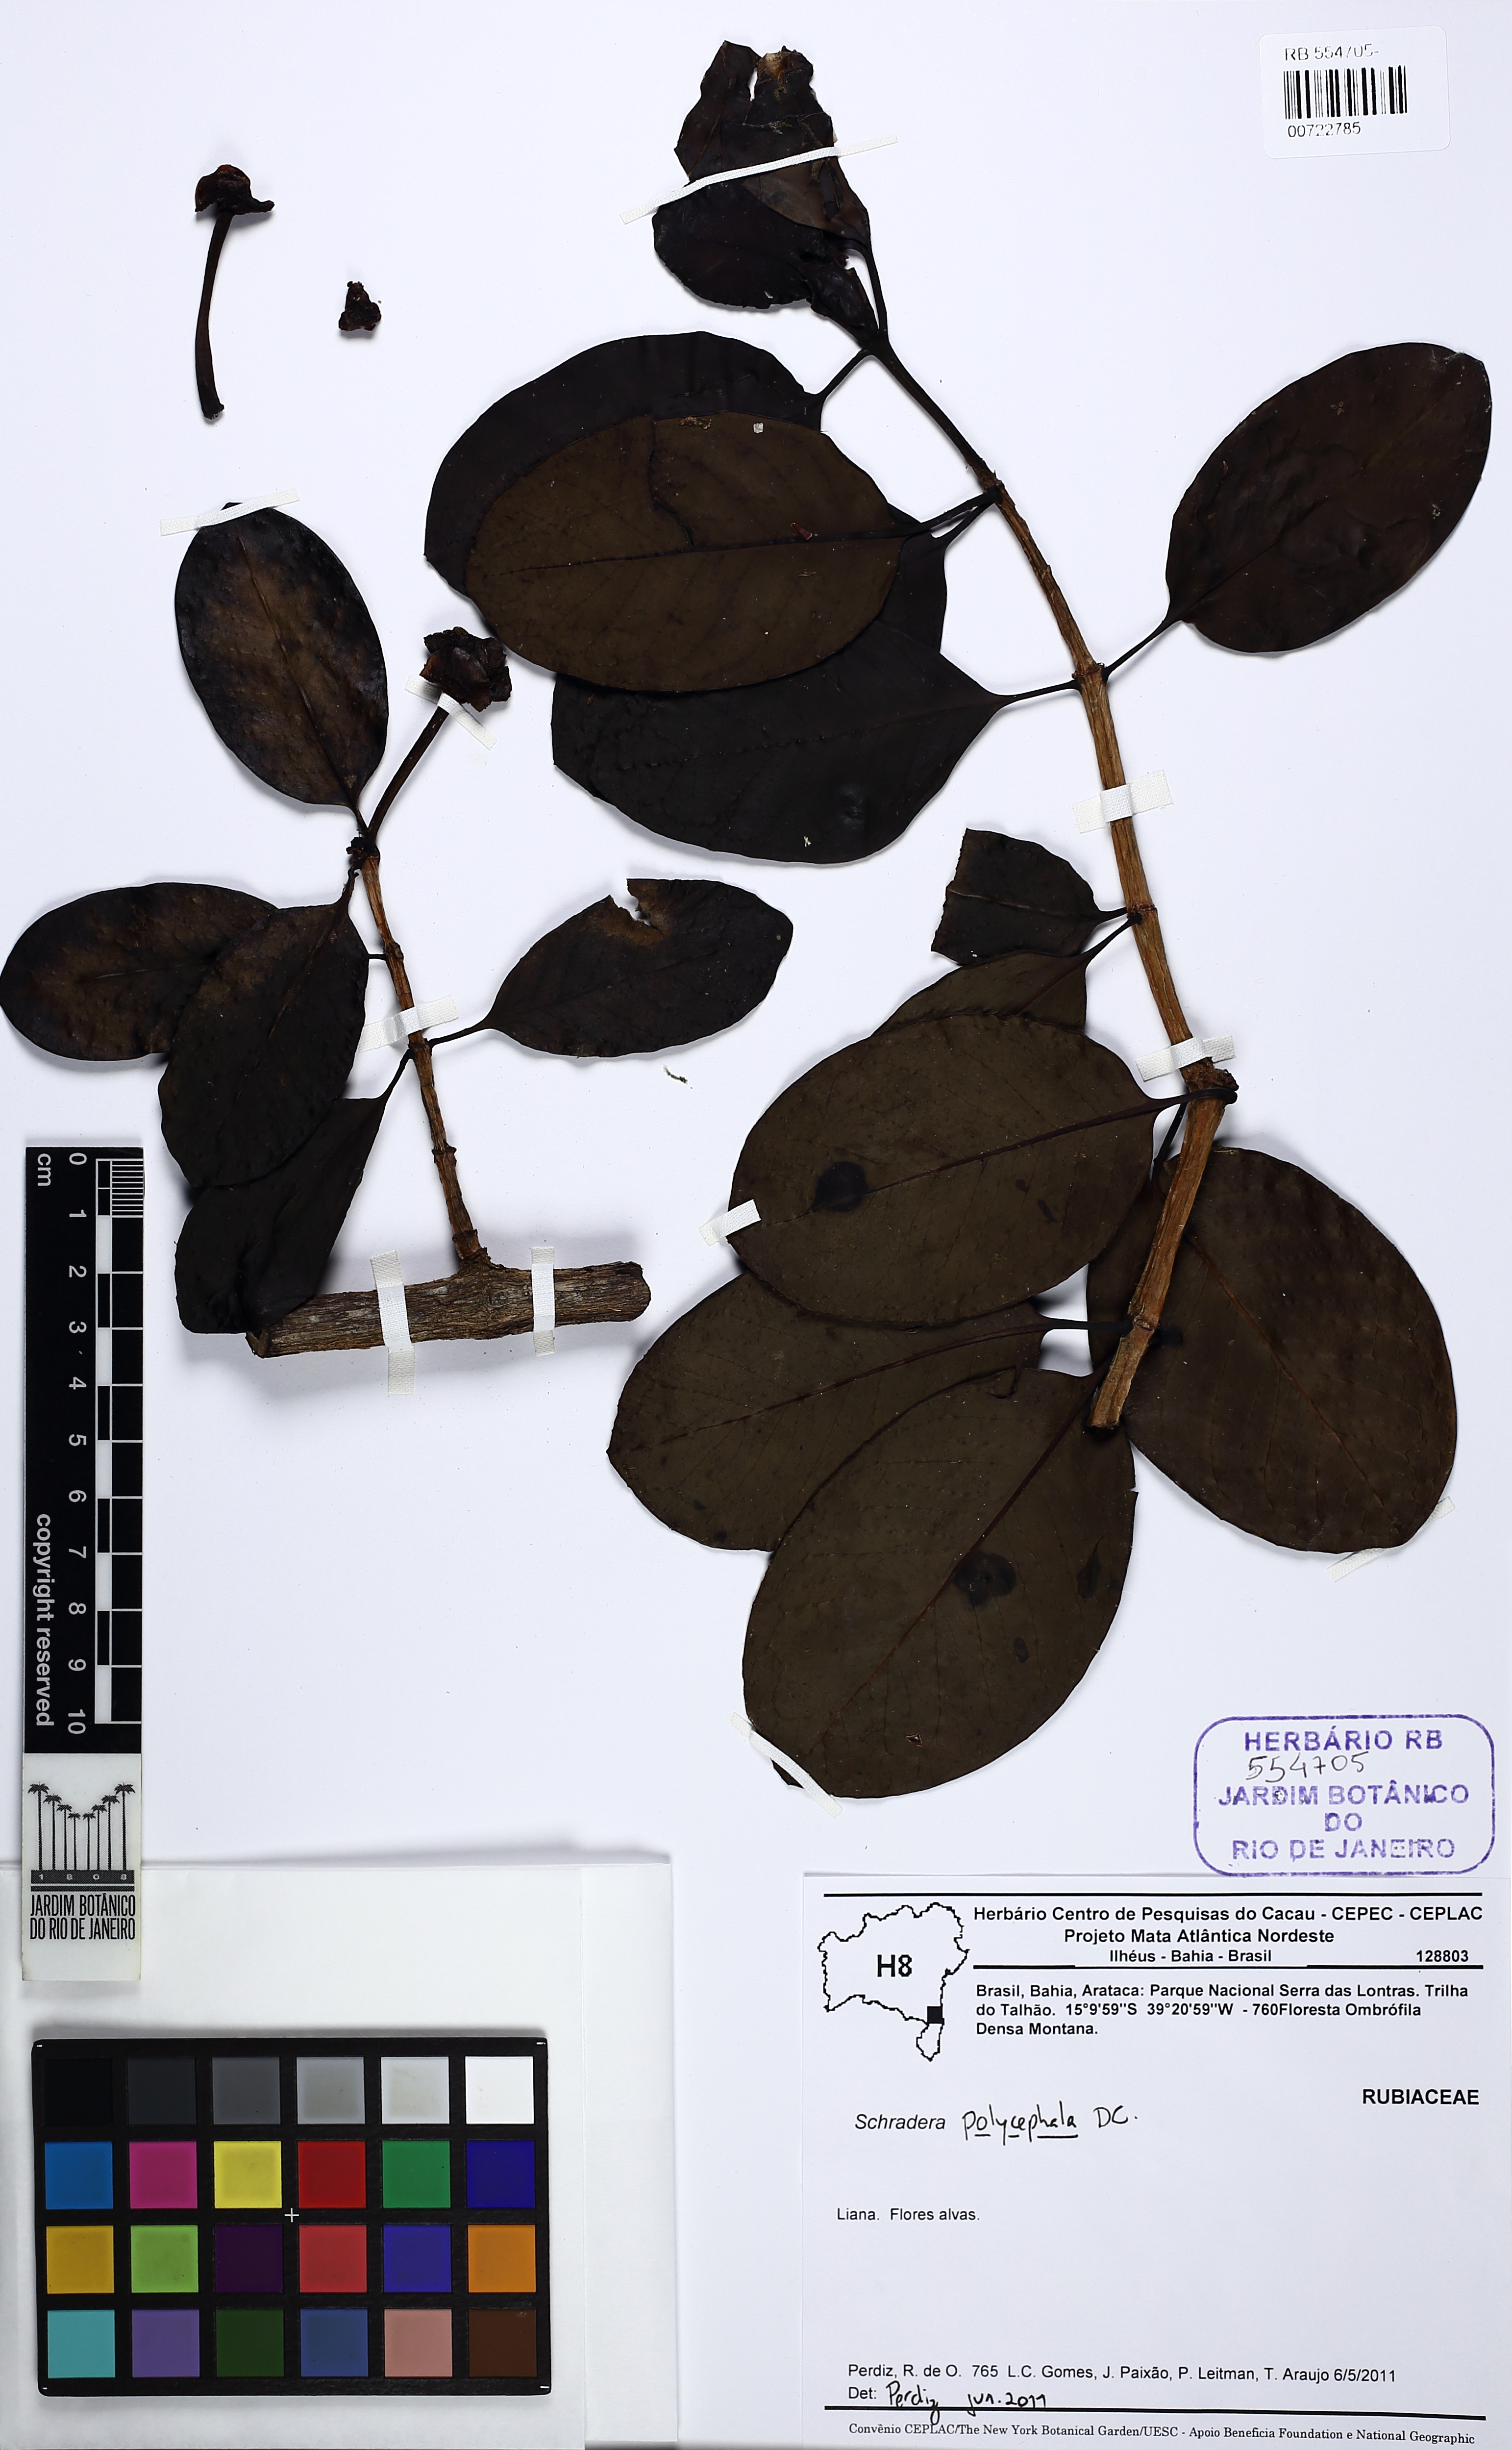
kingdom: Plantae
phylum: Tracheophyta
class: Magnoliopsida
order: Gentianales
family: Rubiaceae
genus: Schradera
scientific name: Schradera polycephala
